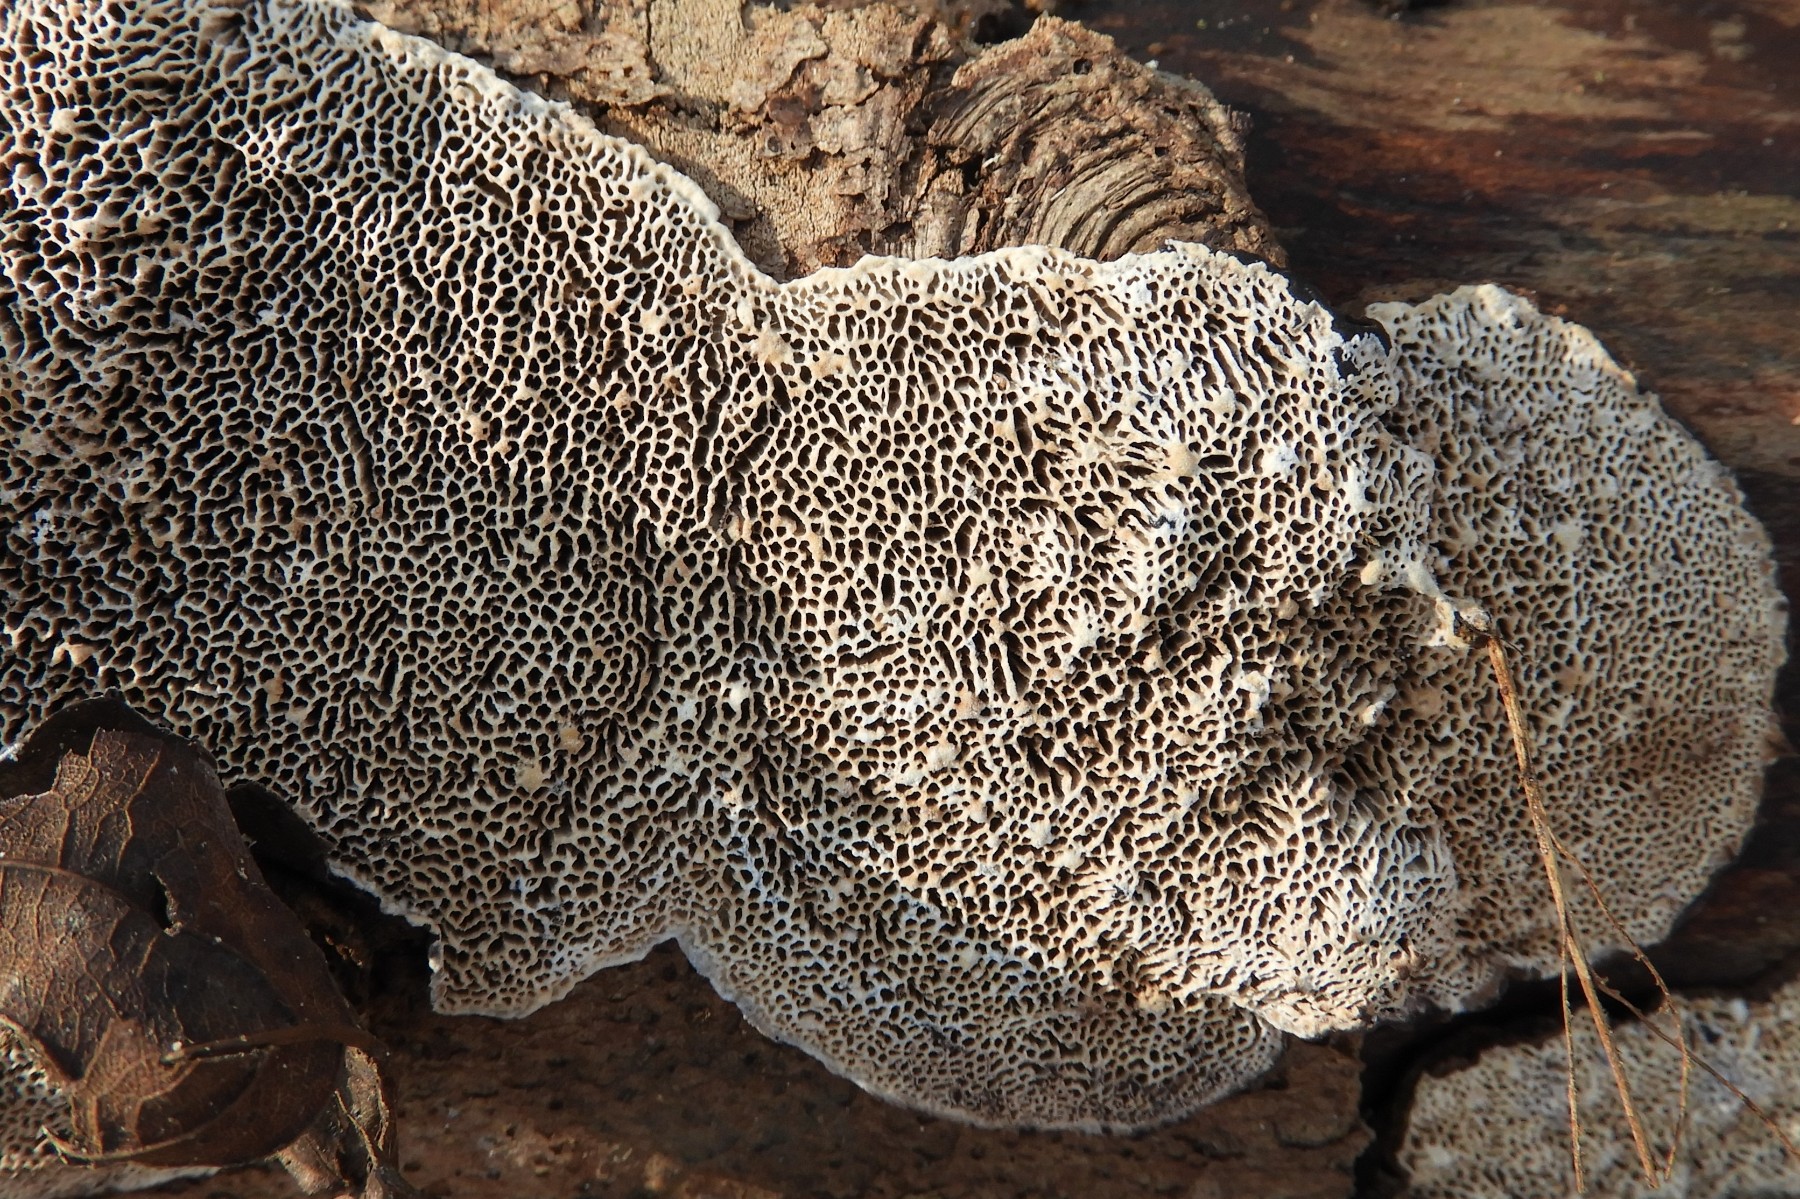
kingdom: Fungi
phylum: Basidiomycota
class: Agaricomycetes
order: Polyporales
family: Polyporaceae
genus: Podofomes
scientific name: Podofomes mollis
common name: blød begporesvamp
